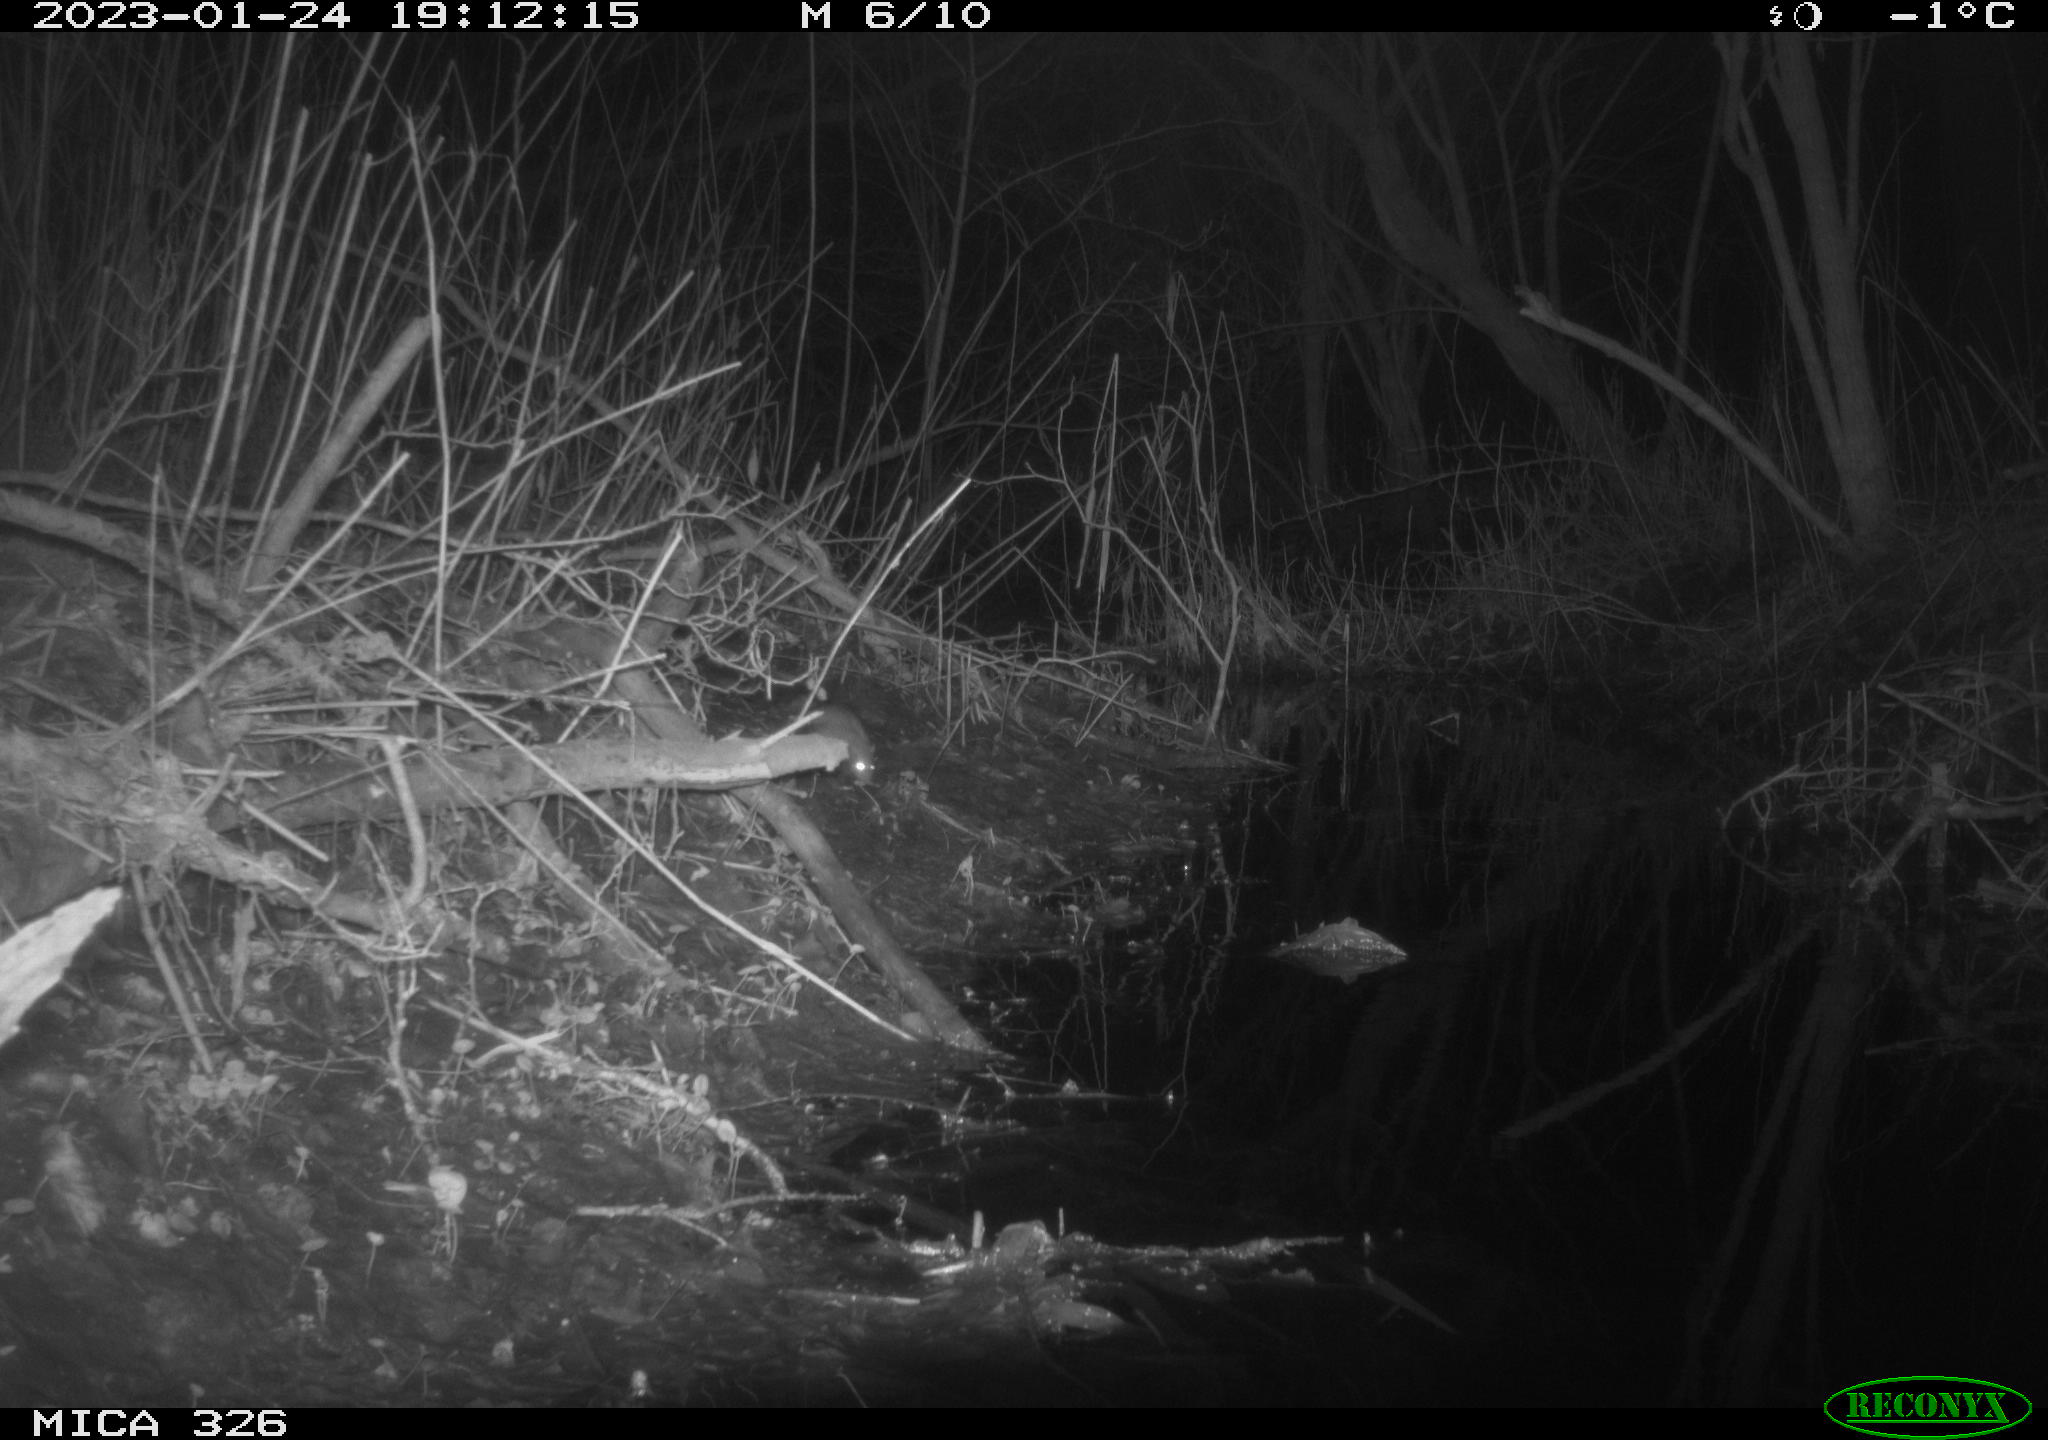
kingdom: Animalia
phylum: Chordata
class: Mammalia
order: Rodentia
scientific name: Rodentia
